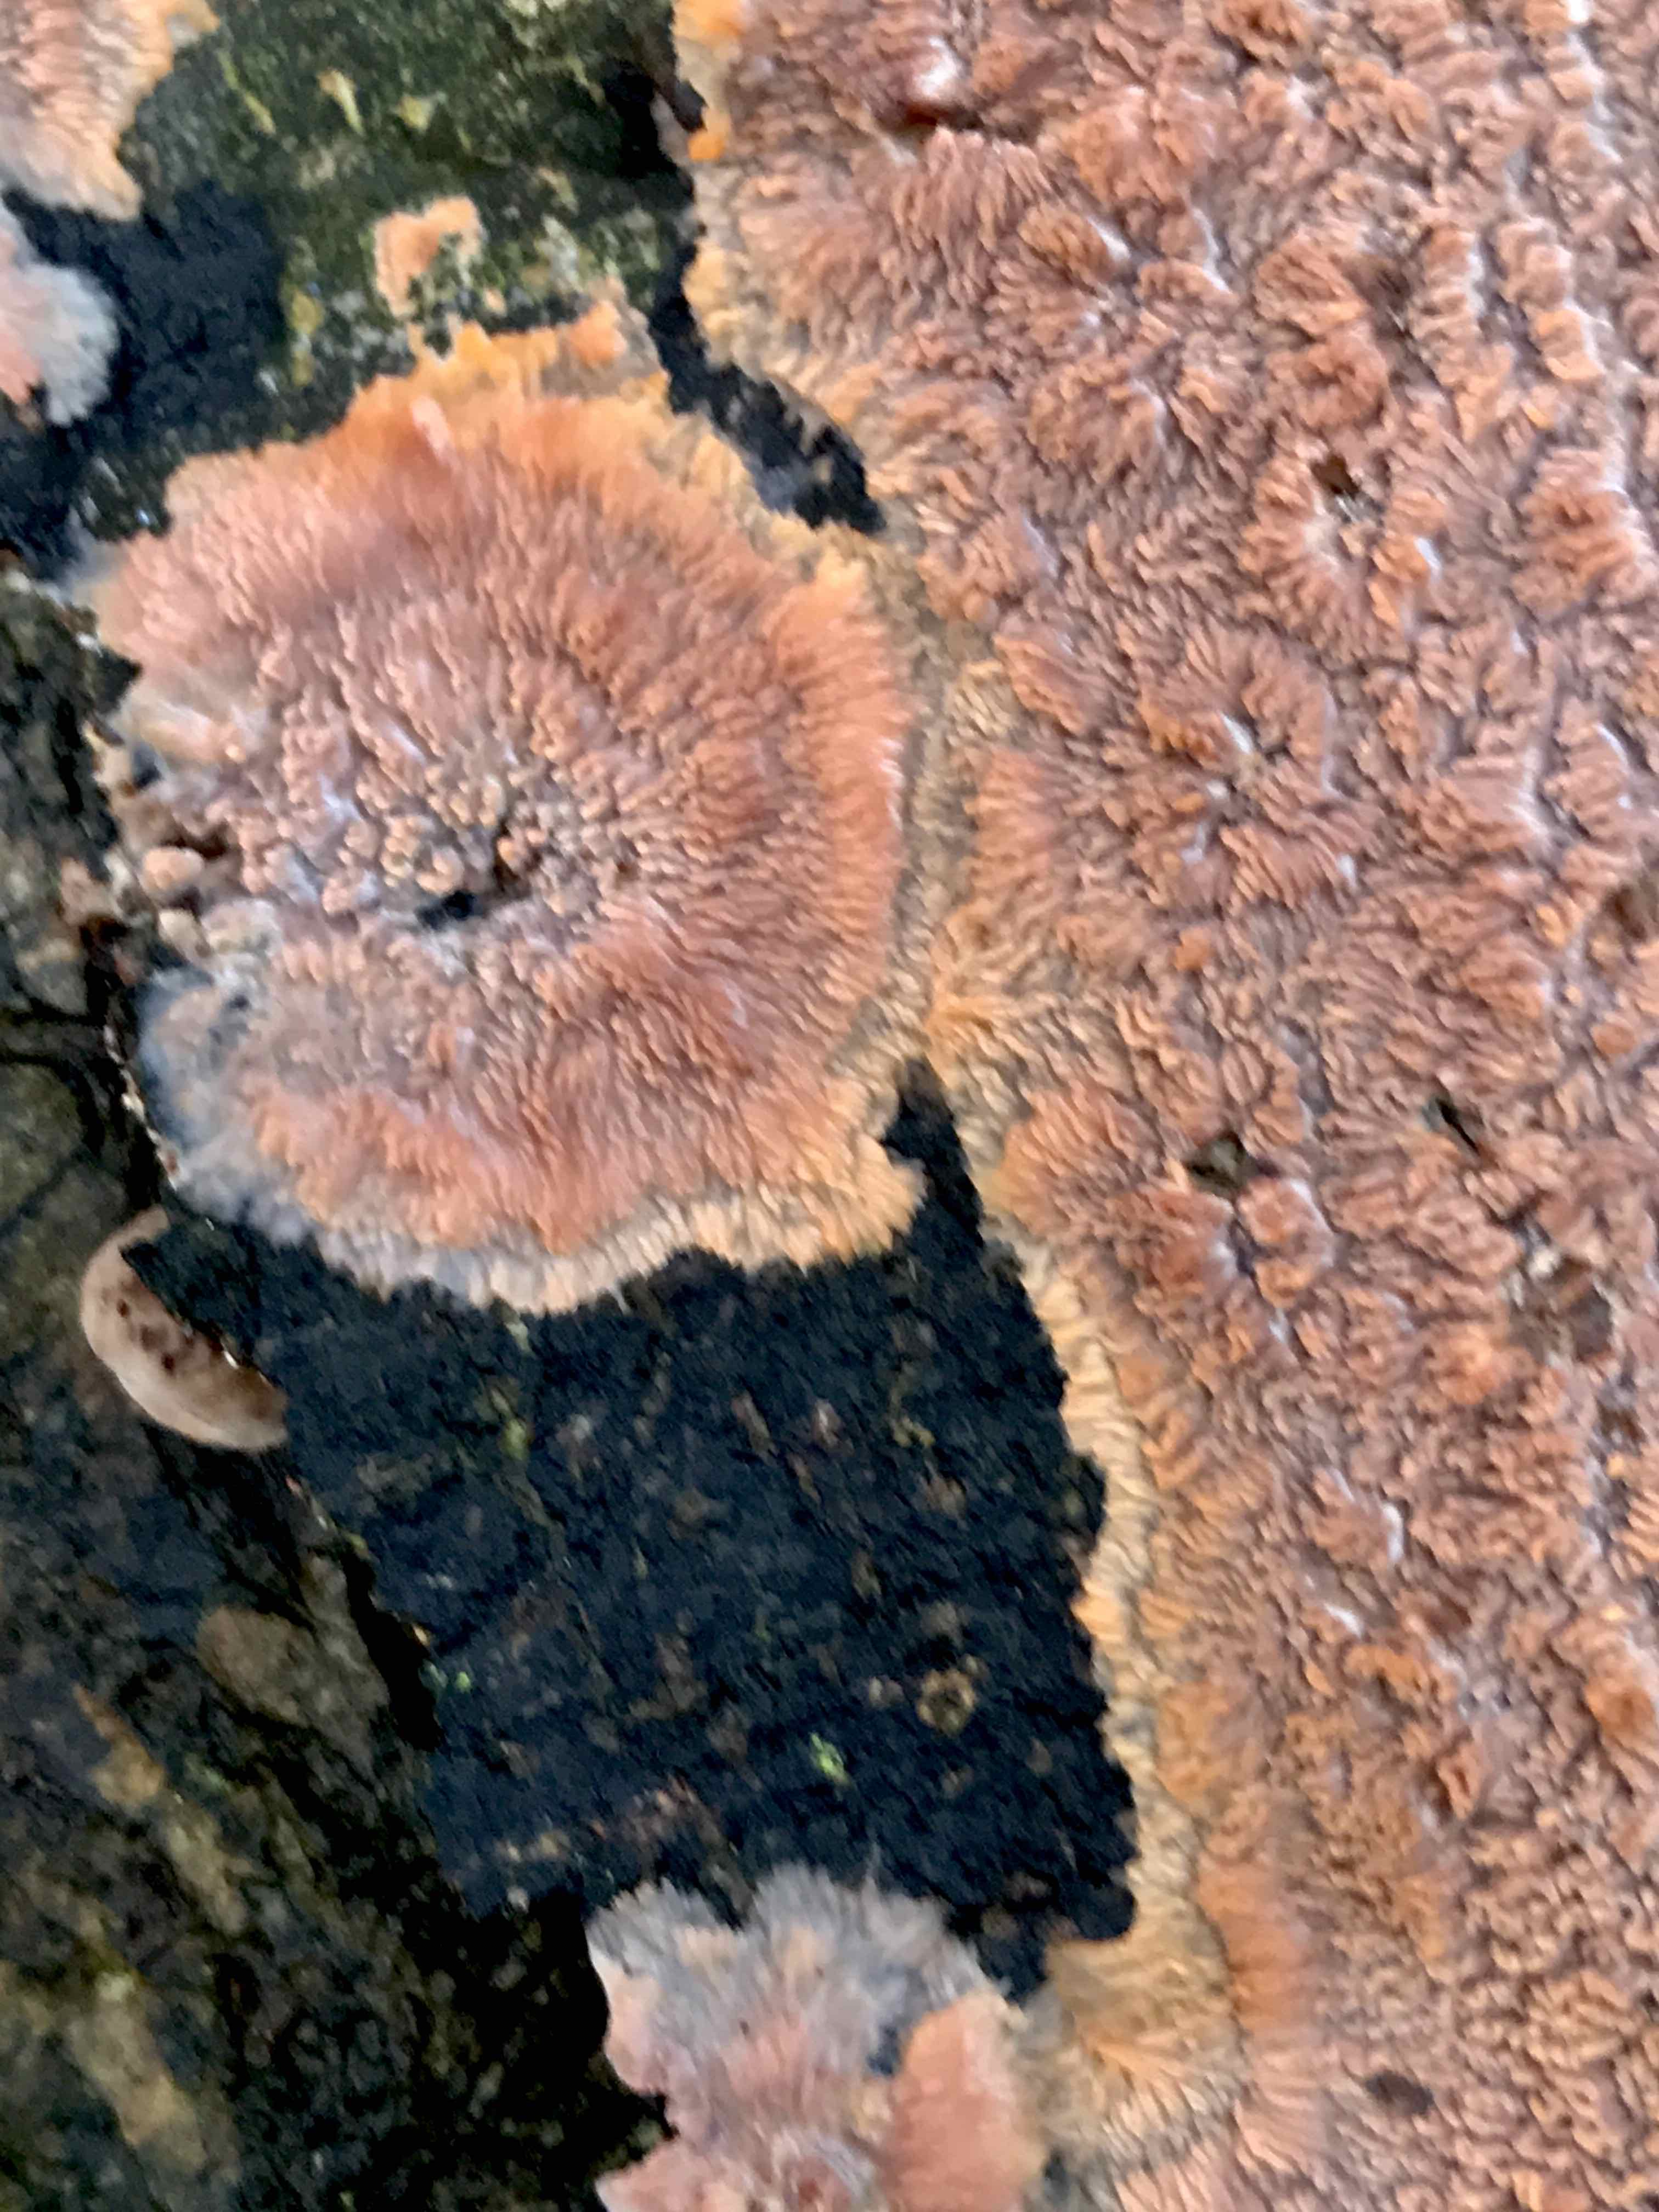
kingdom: Fungi
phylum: Basidiomycota
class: Agaricomycetes
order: Polyporales
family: Meruliaceae
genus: Phlebia
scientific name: Phlebia radiata
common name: stråle-åresvamp
